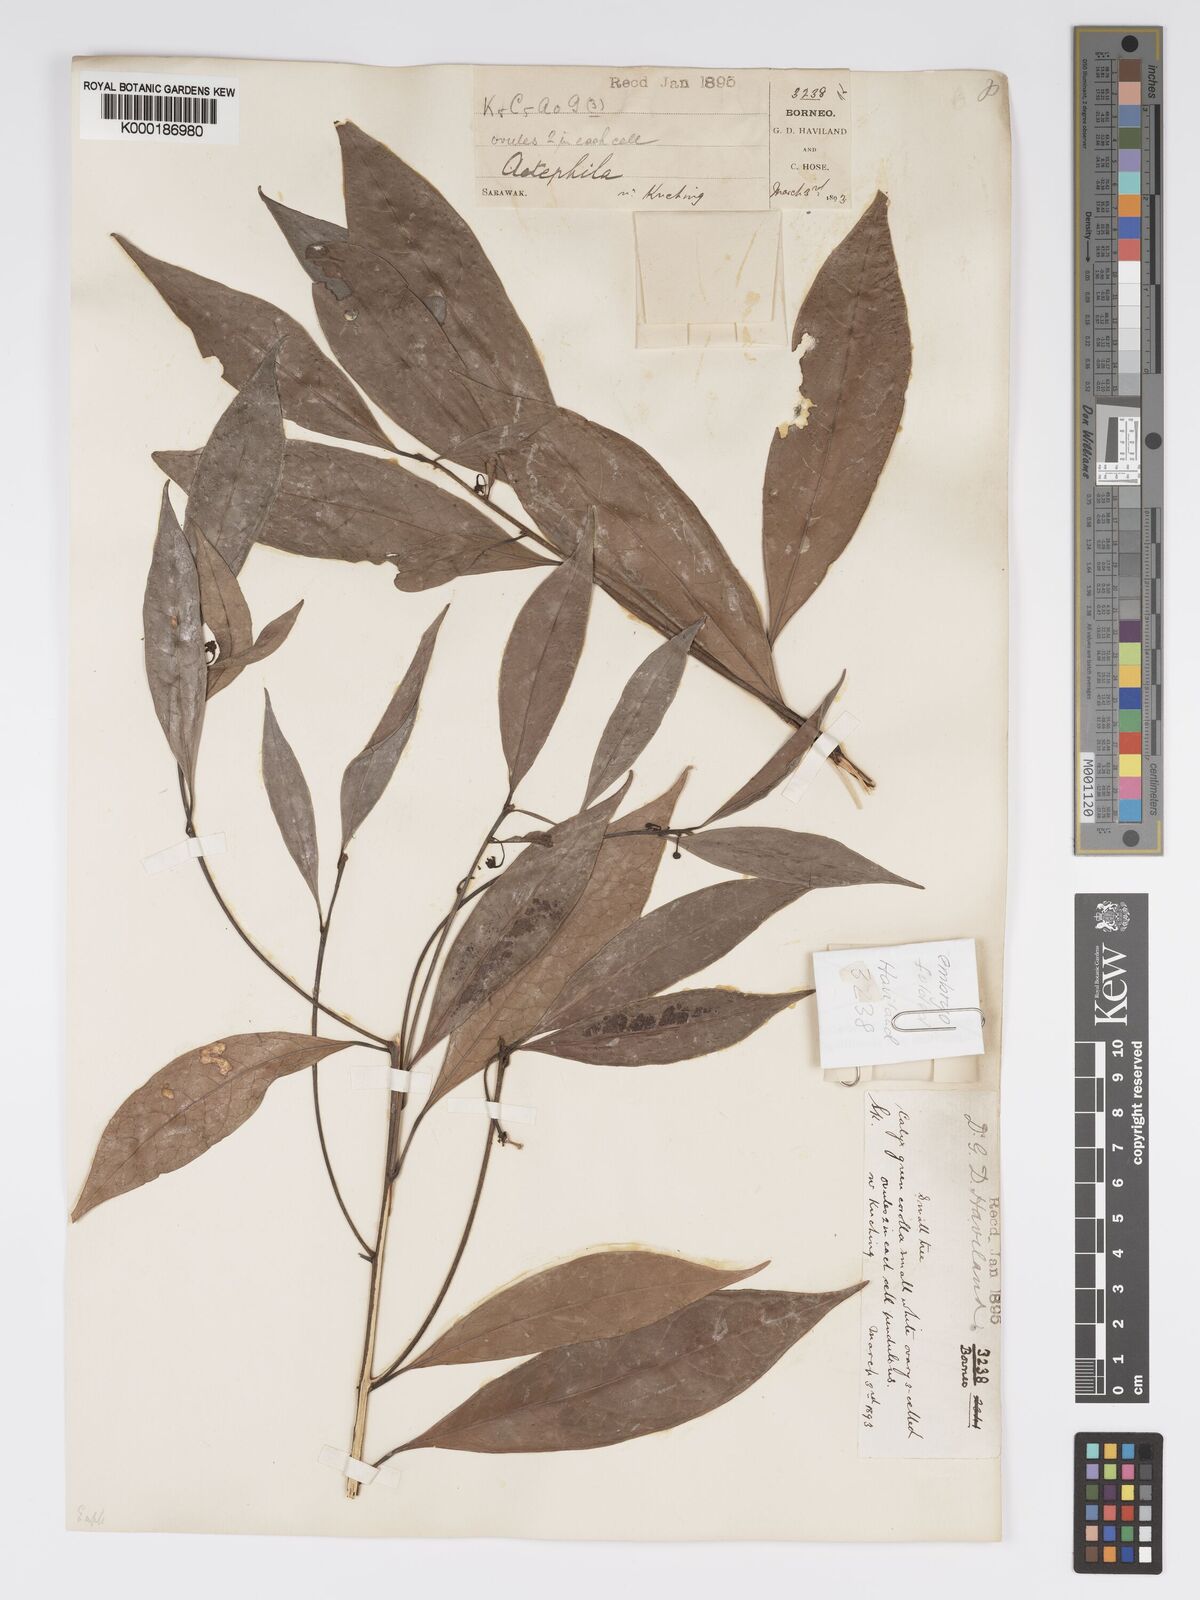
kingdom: Plantae
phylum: Tracheophyta
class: Magnoliopsida
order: Malpighiales
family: Phyllanthaceae
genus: Actephila
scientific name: Actephila
